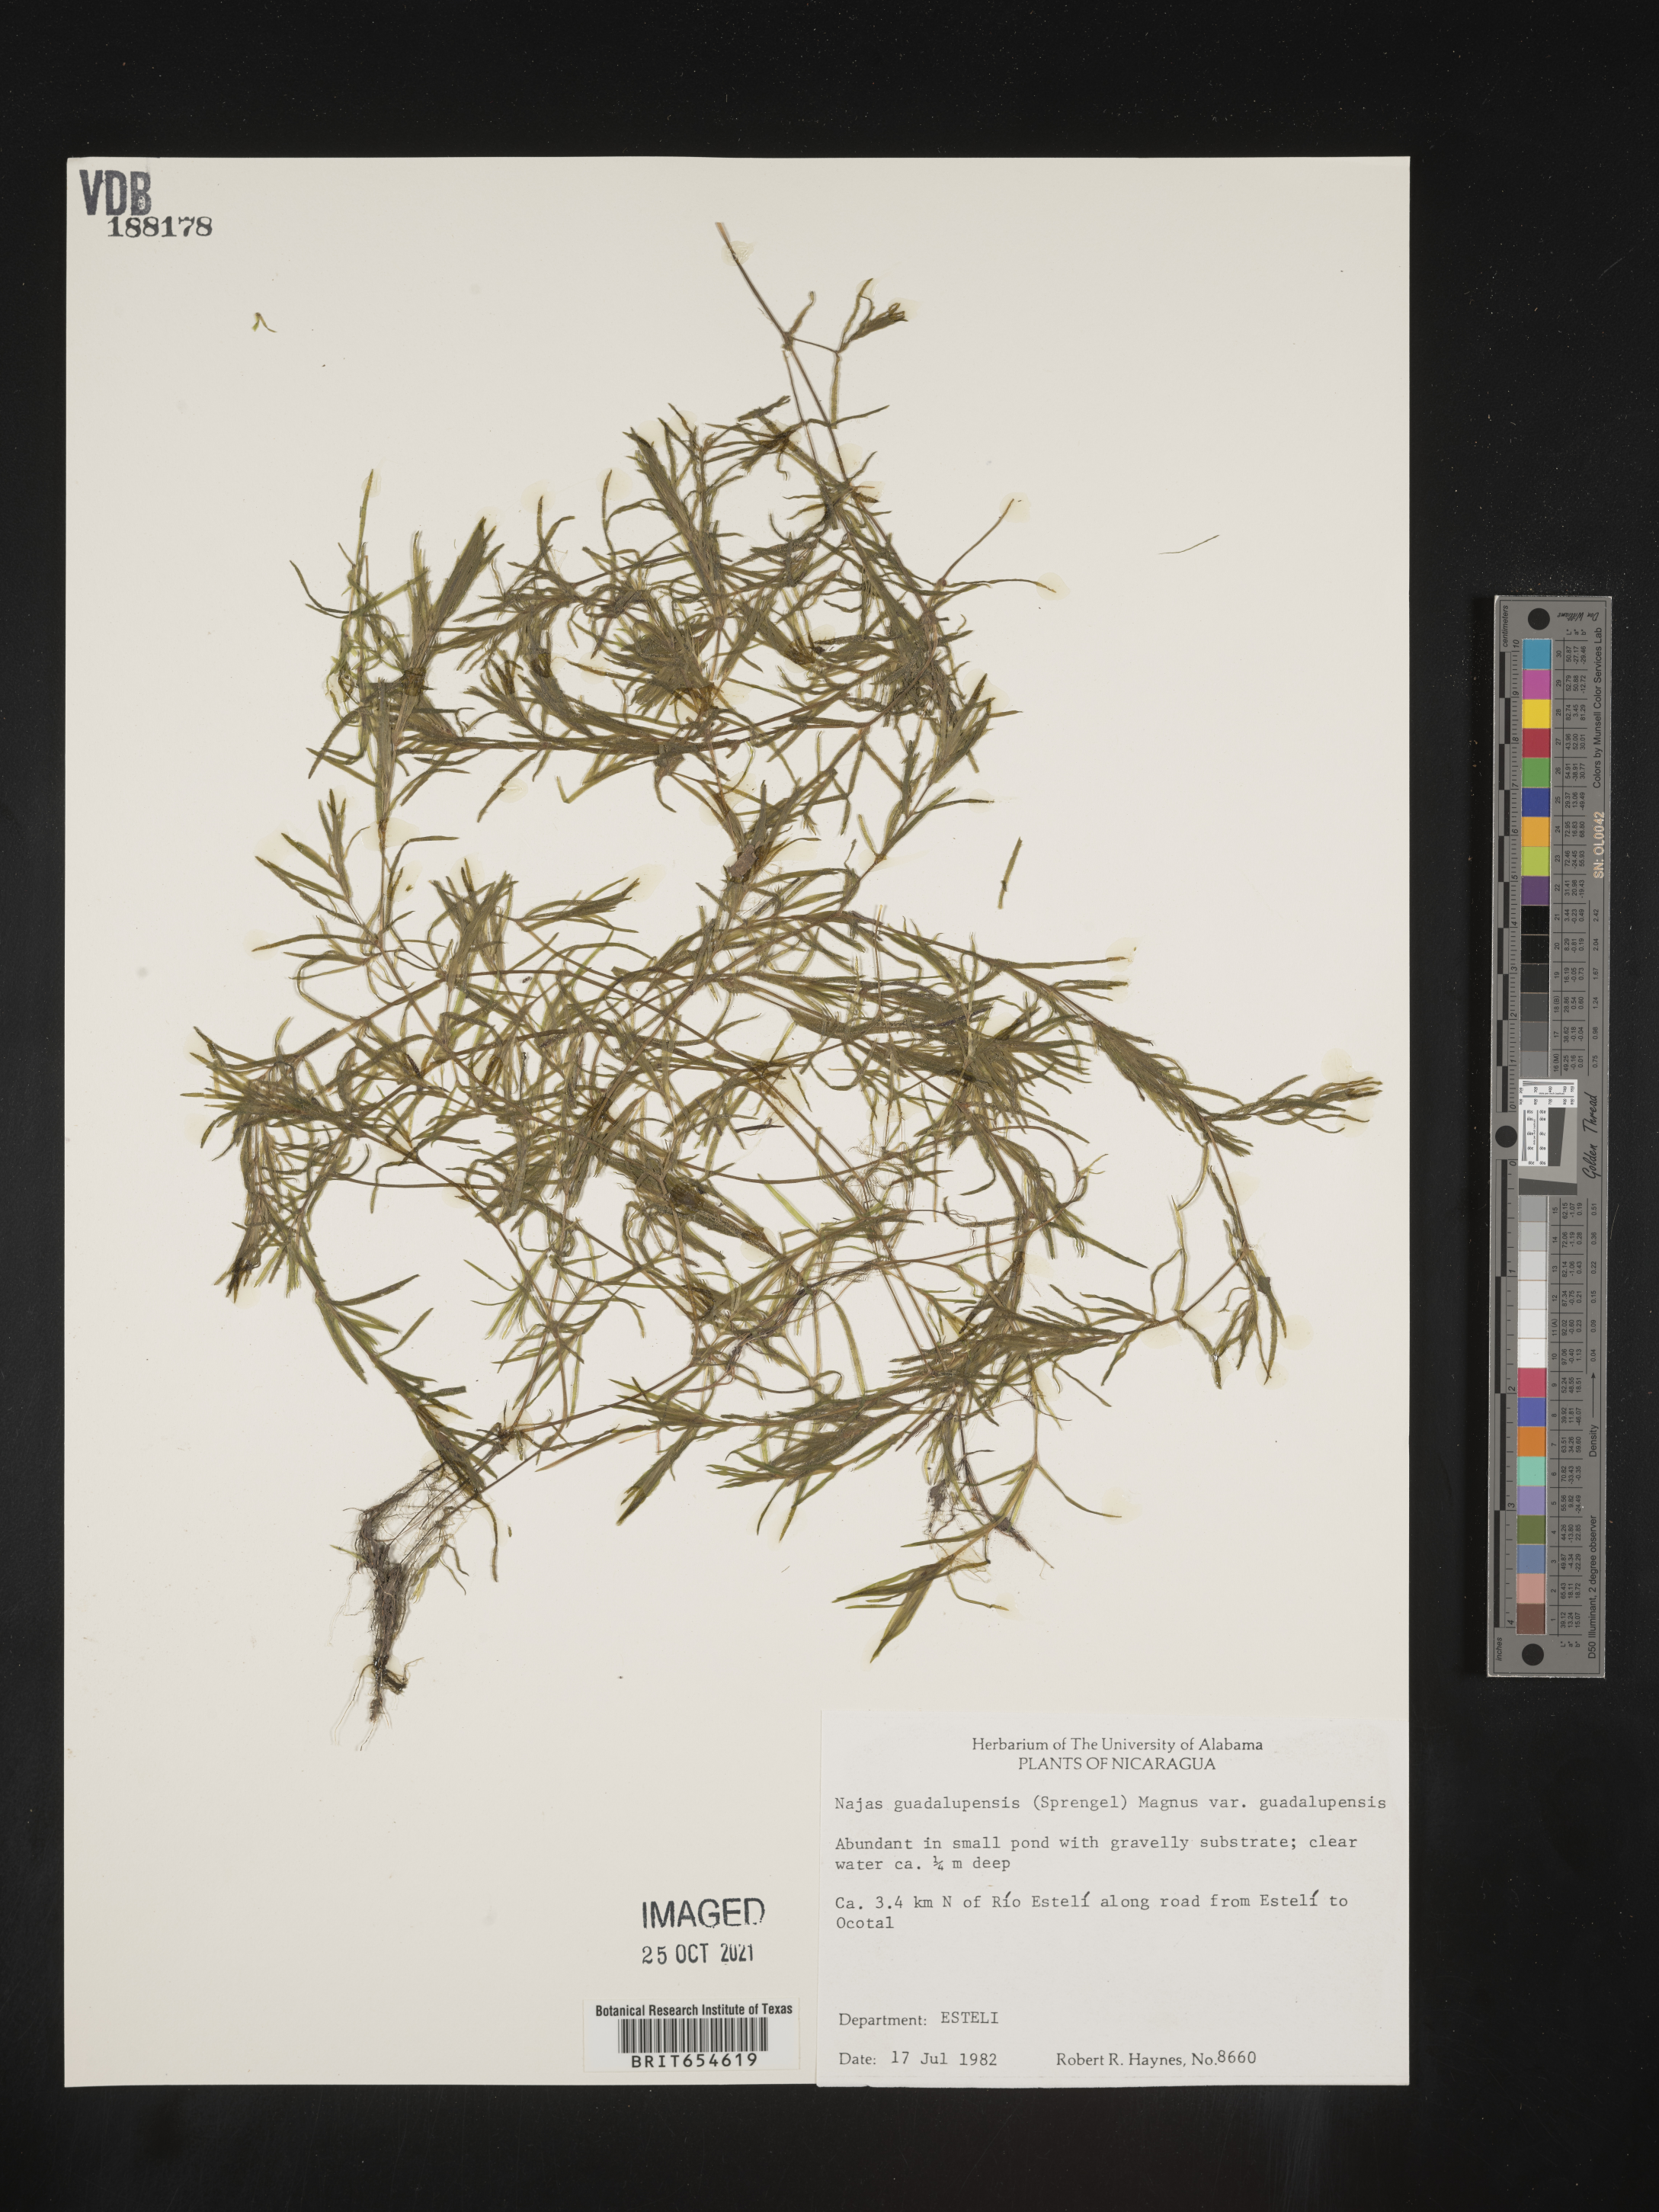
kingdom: Plantae
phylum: Tracheophyta
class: Liliopsida
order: Alismatales
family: Hydrocharitaceae
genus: Najas
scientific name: Najas
